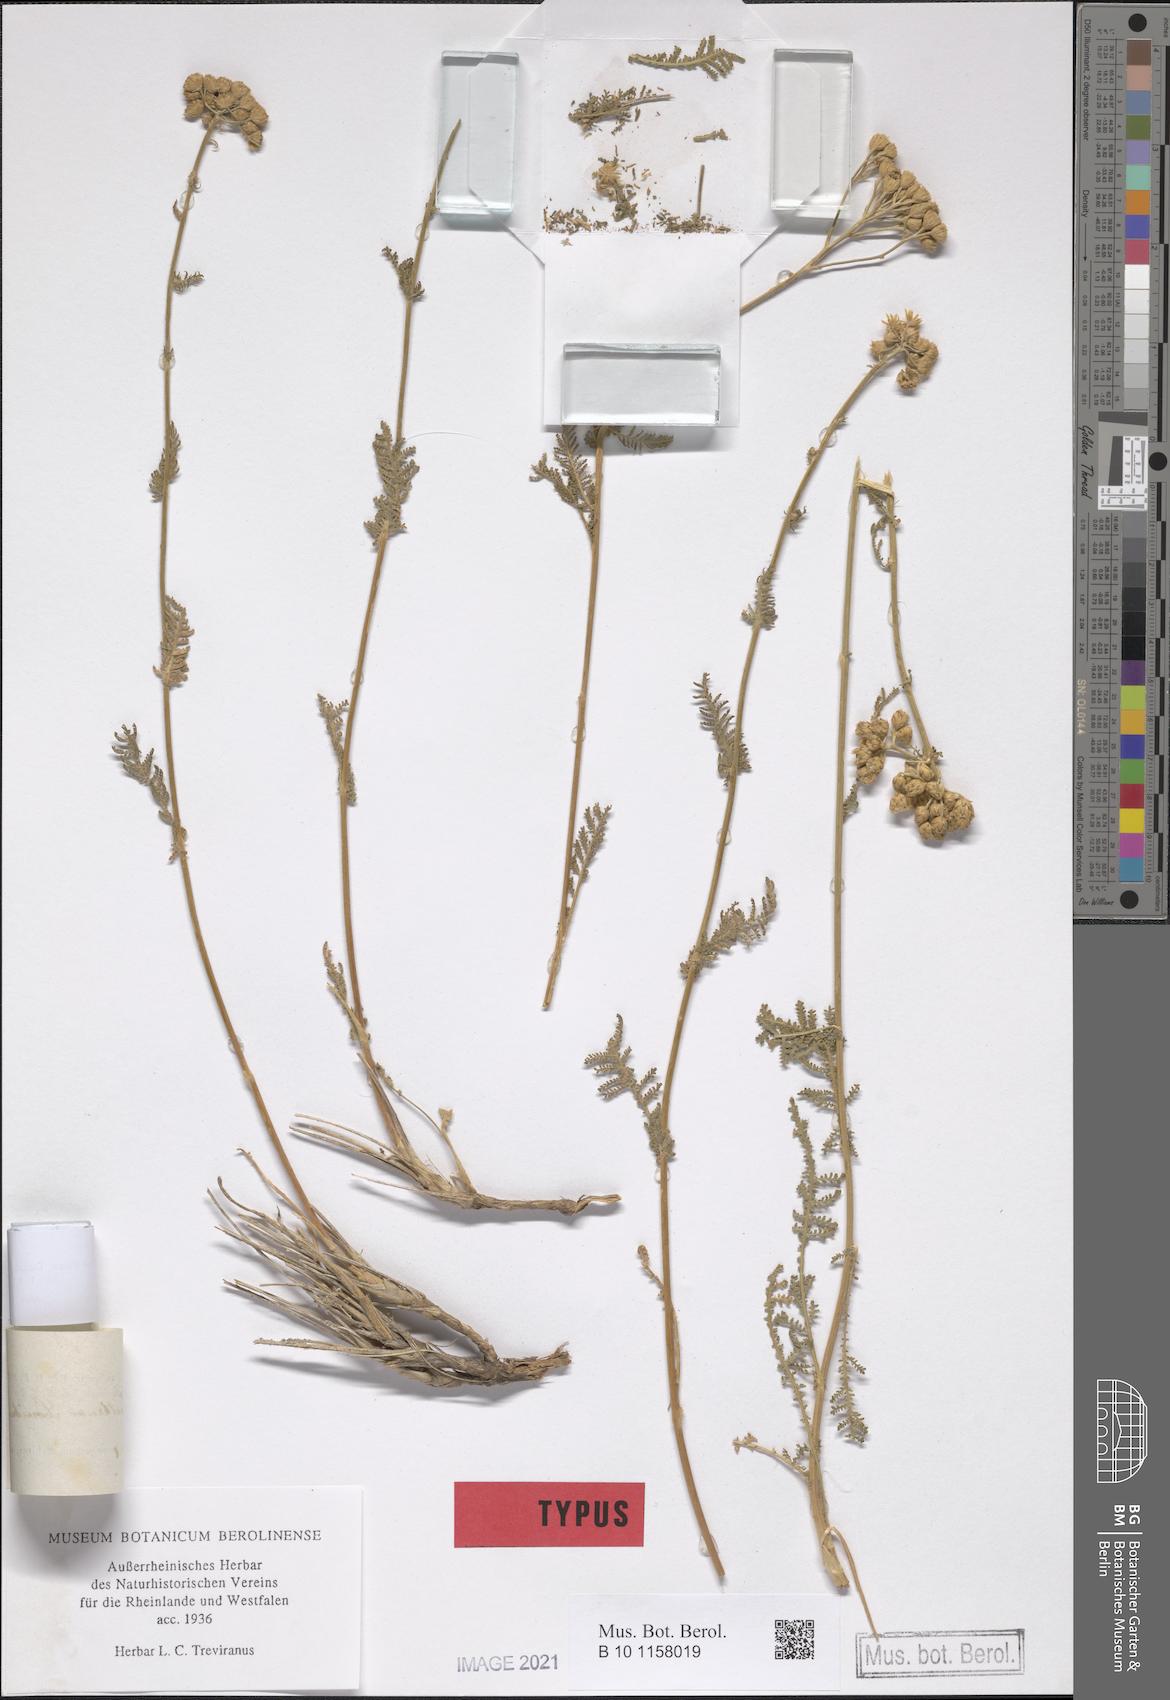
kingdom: Plantae
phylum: Tracheophyta
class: Magnoliopsida
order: Asterales
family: Asteraceae
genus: Tanacetum
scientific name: Tanacetum polycephalum
